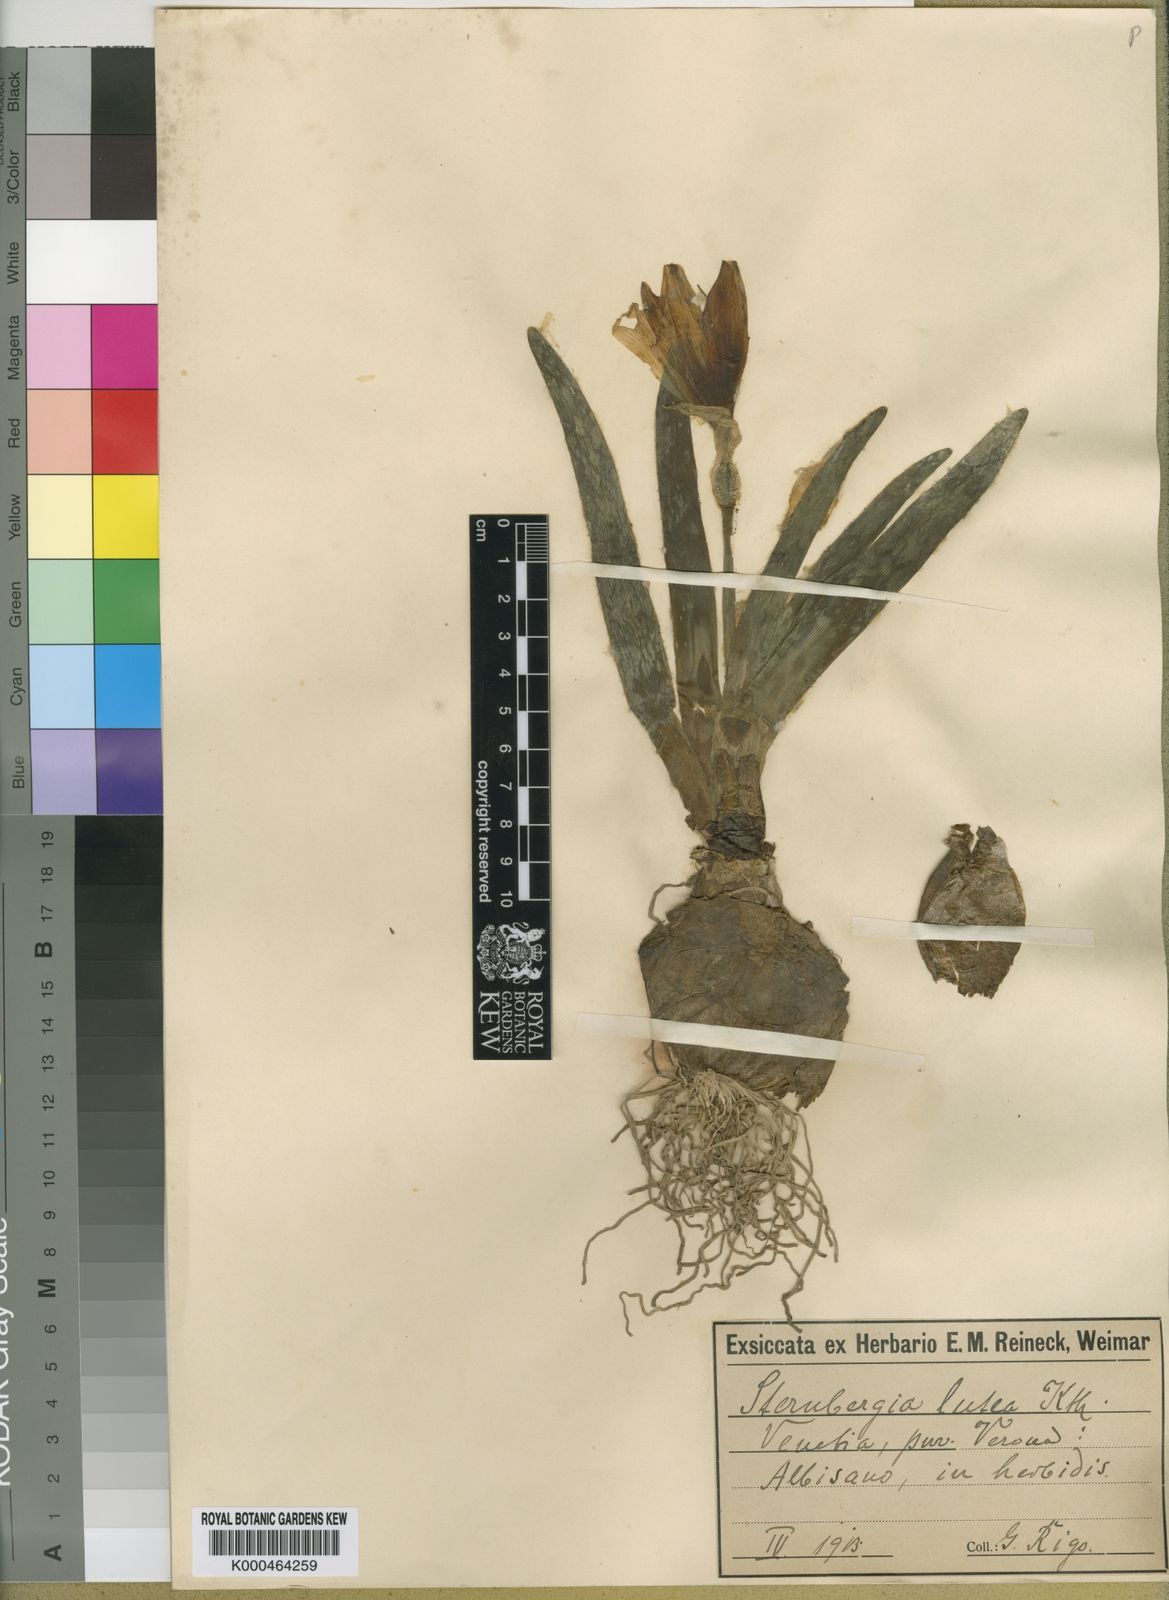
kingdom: Plantae
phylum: Tracheophyta
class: Liliopsida
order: Asparagales
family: Amaryllidaceae
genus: Sternbergia
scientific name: Sternbergia
